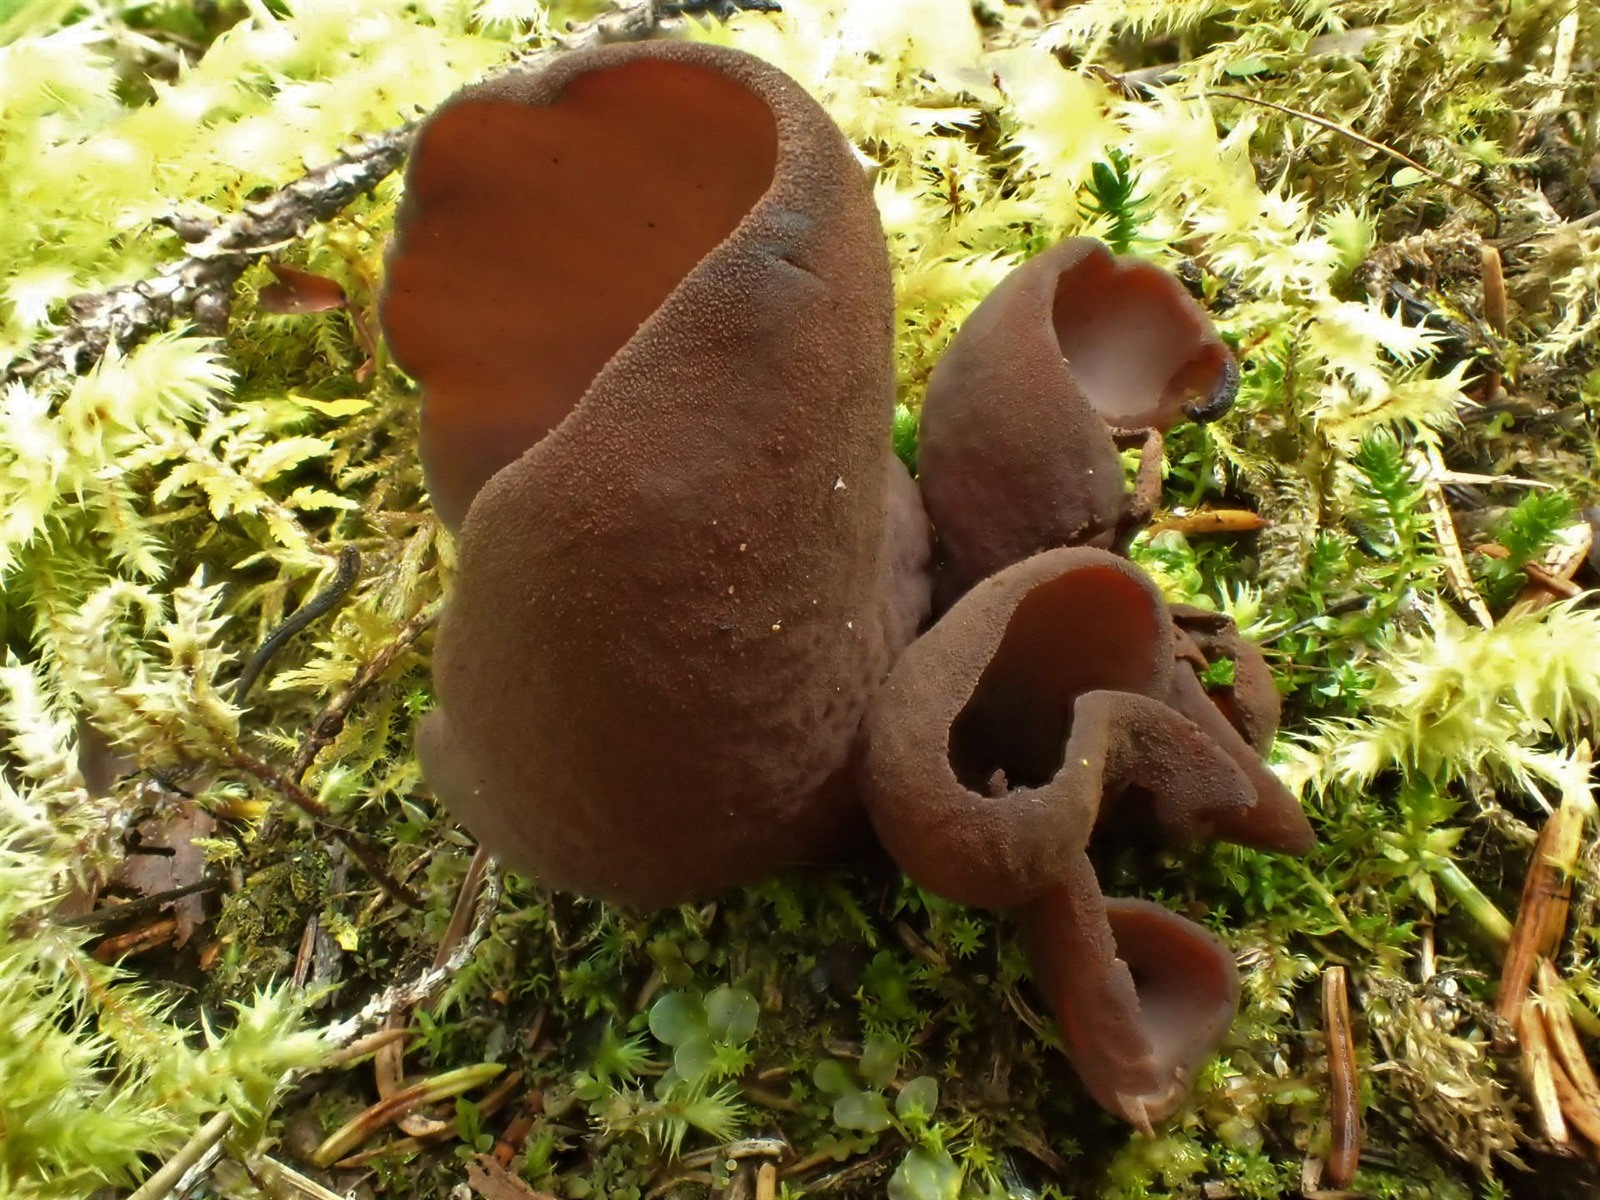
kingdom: Fungi
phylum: Ascomycota
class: Pezizomycetes
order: Pezizales
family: Otideaceae
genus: Otidea
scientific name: Otidea mirabilis
